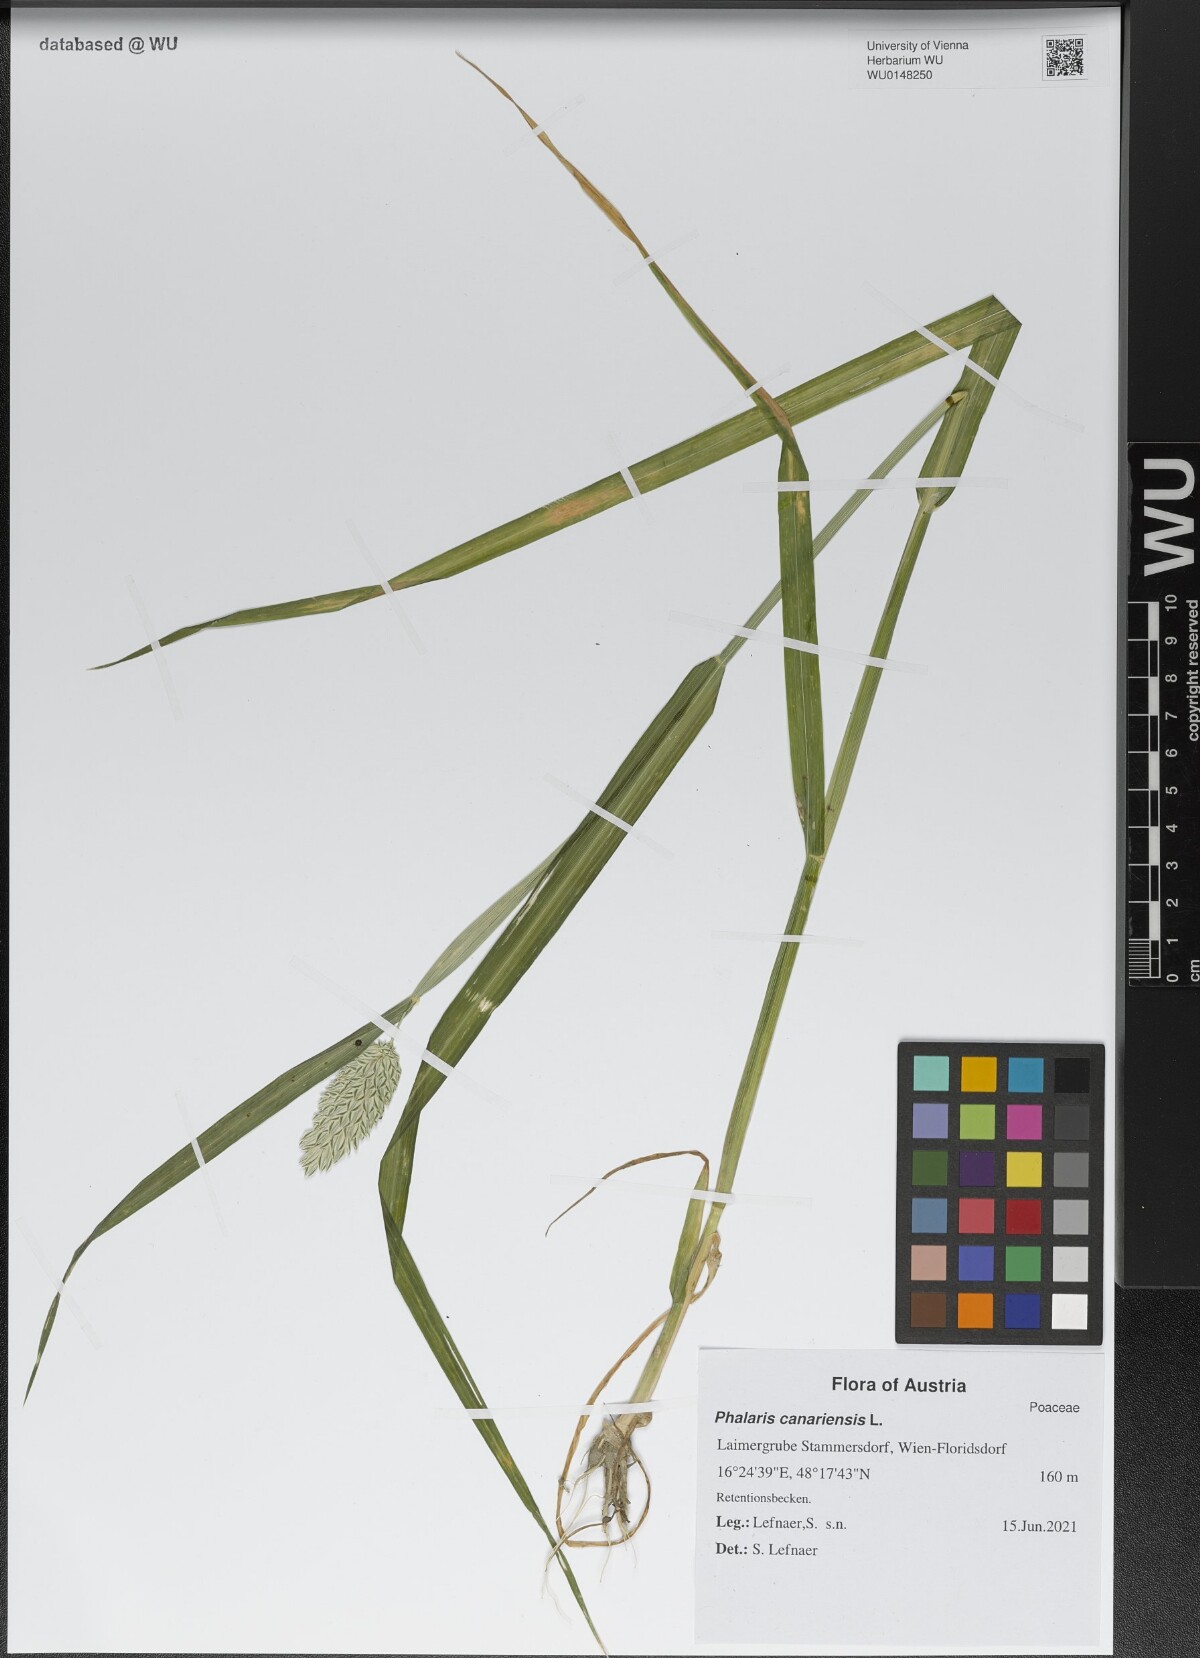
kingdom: Plantae
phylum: Tracheophyta
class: Liliopsida
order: Poales
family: Poaceae
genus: Phalaris
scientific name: Phalaris canariensis
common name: Annual canarygrass
